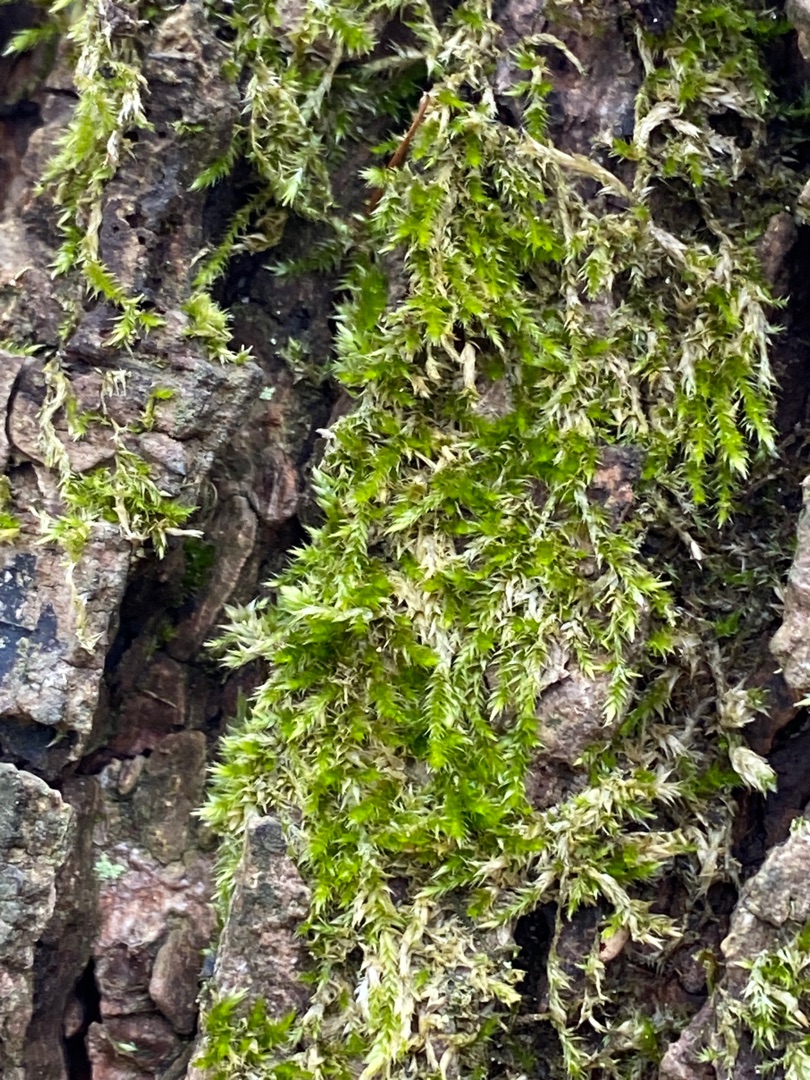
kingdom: Plantae
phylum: Bryophyta
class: Bryopsida
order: Hypnales
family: Hypnaceae
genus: Hypnum
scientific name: Hypnum
